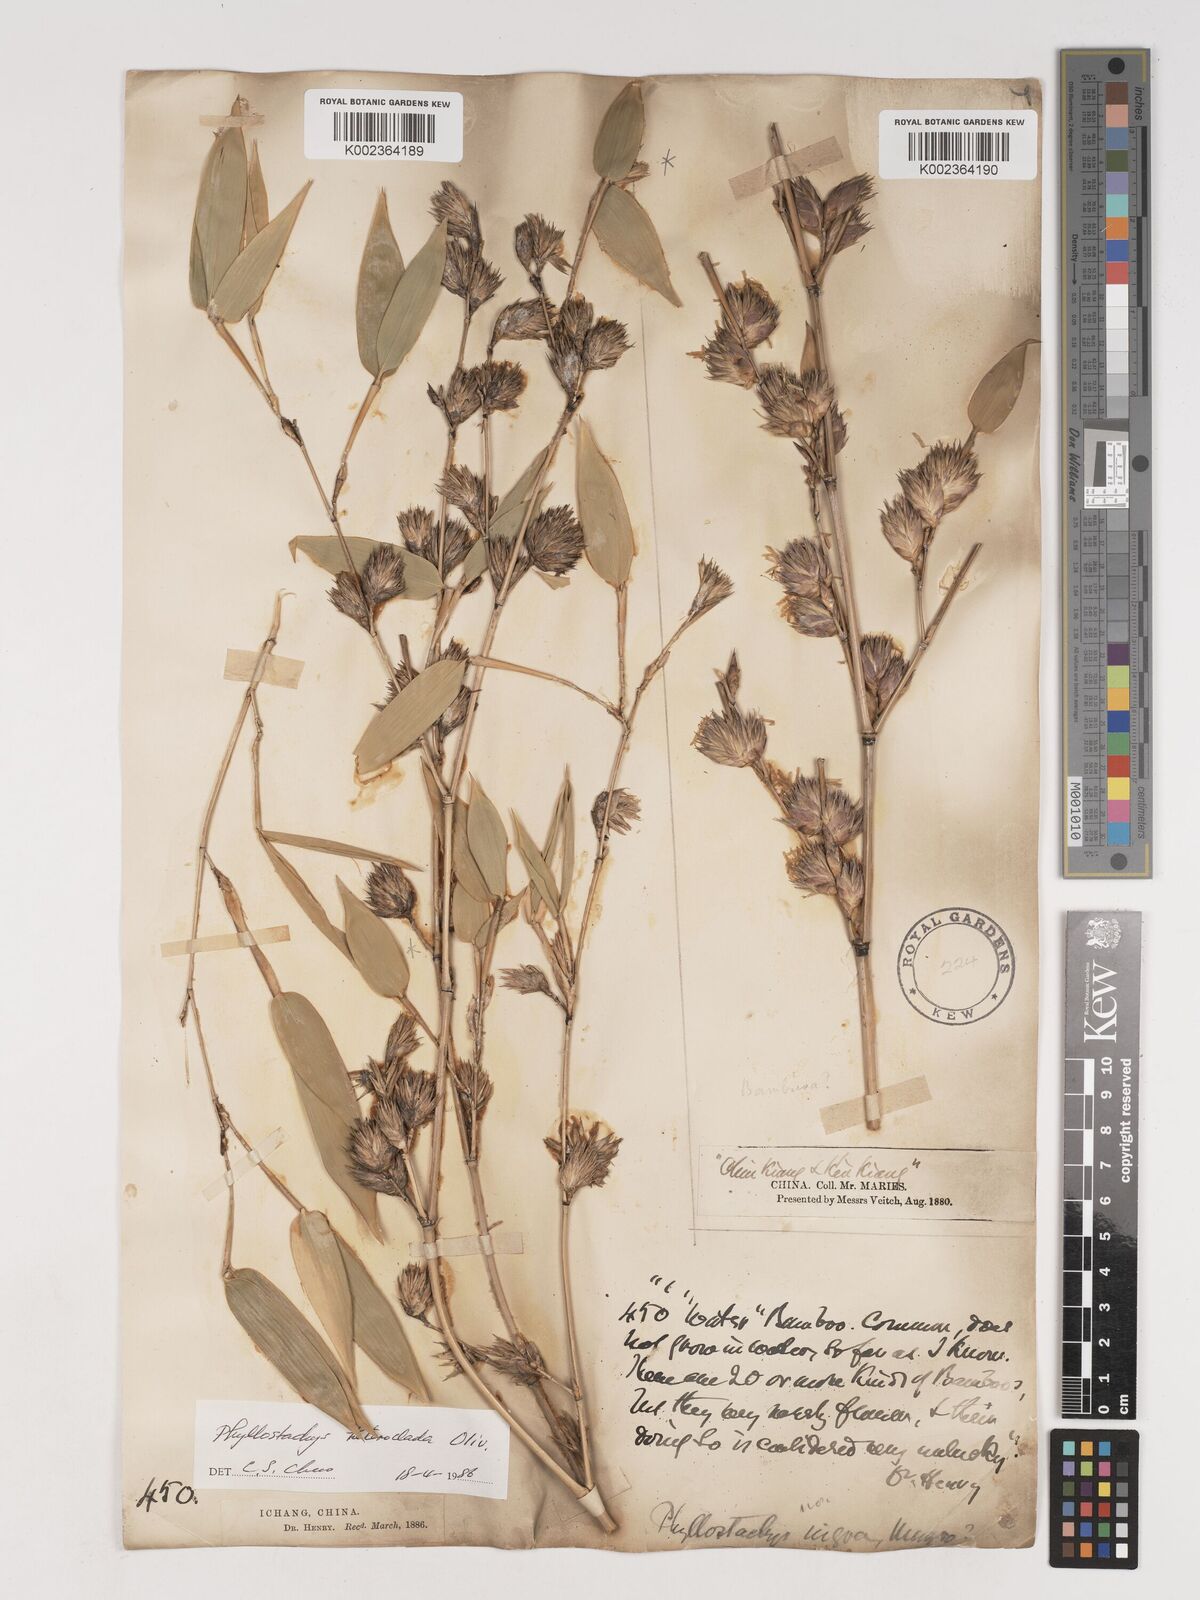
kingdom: Plantae
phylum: Tracheophyta
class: Liliopsida
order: Poales
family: Poaceae
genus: Phyllostachys
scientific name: Phyllostachys heteroclada
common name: Fishscale bamboo
